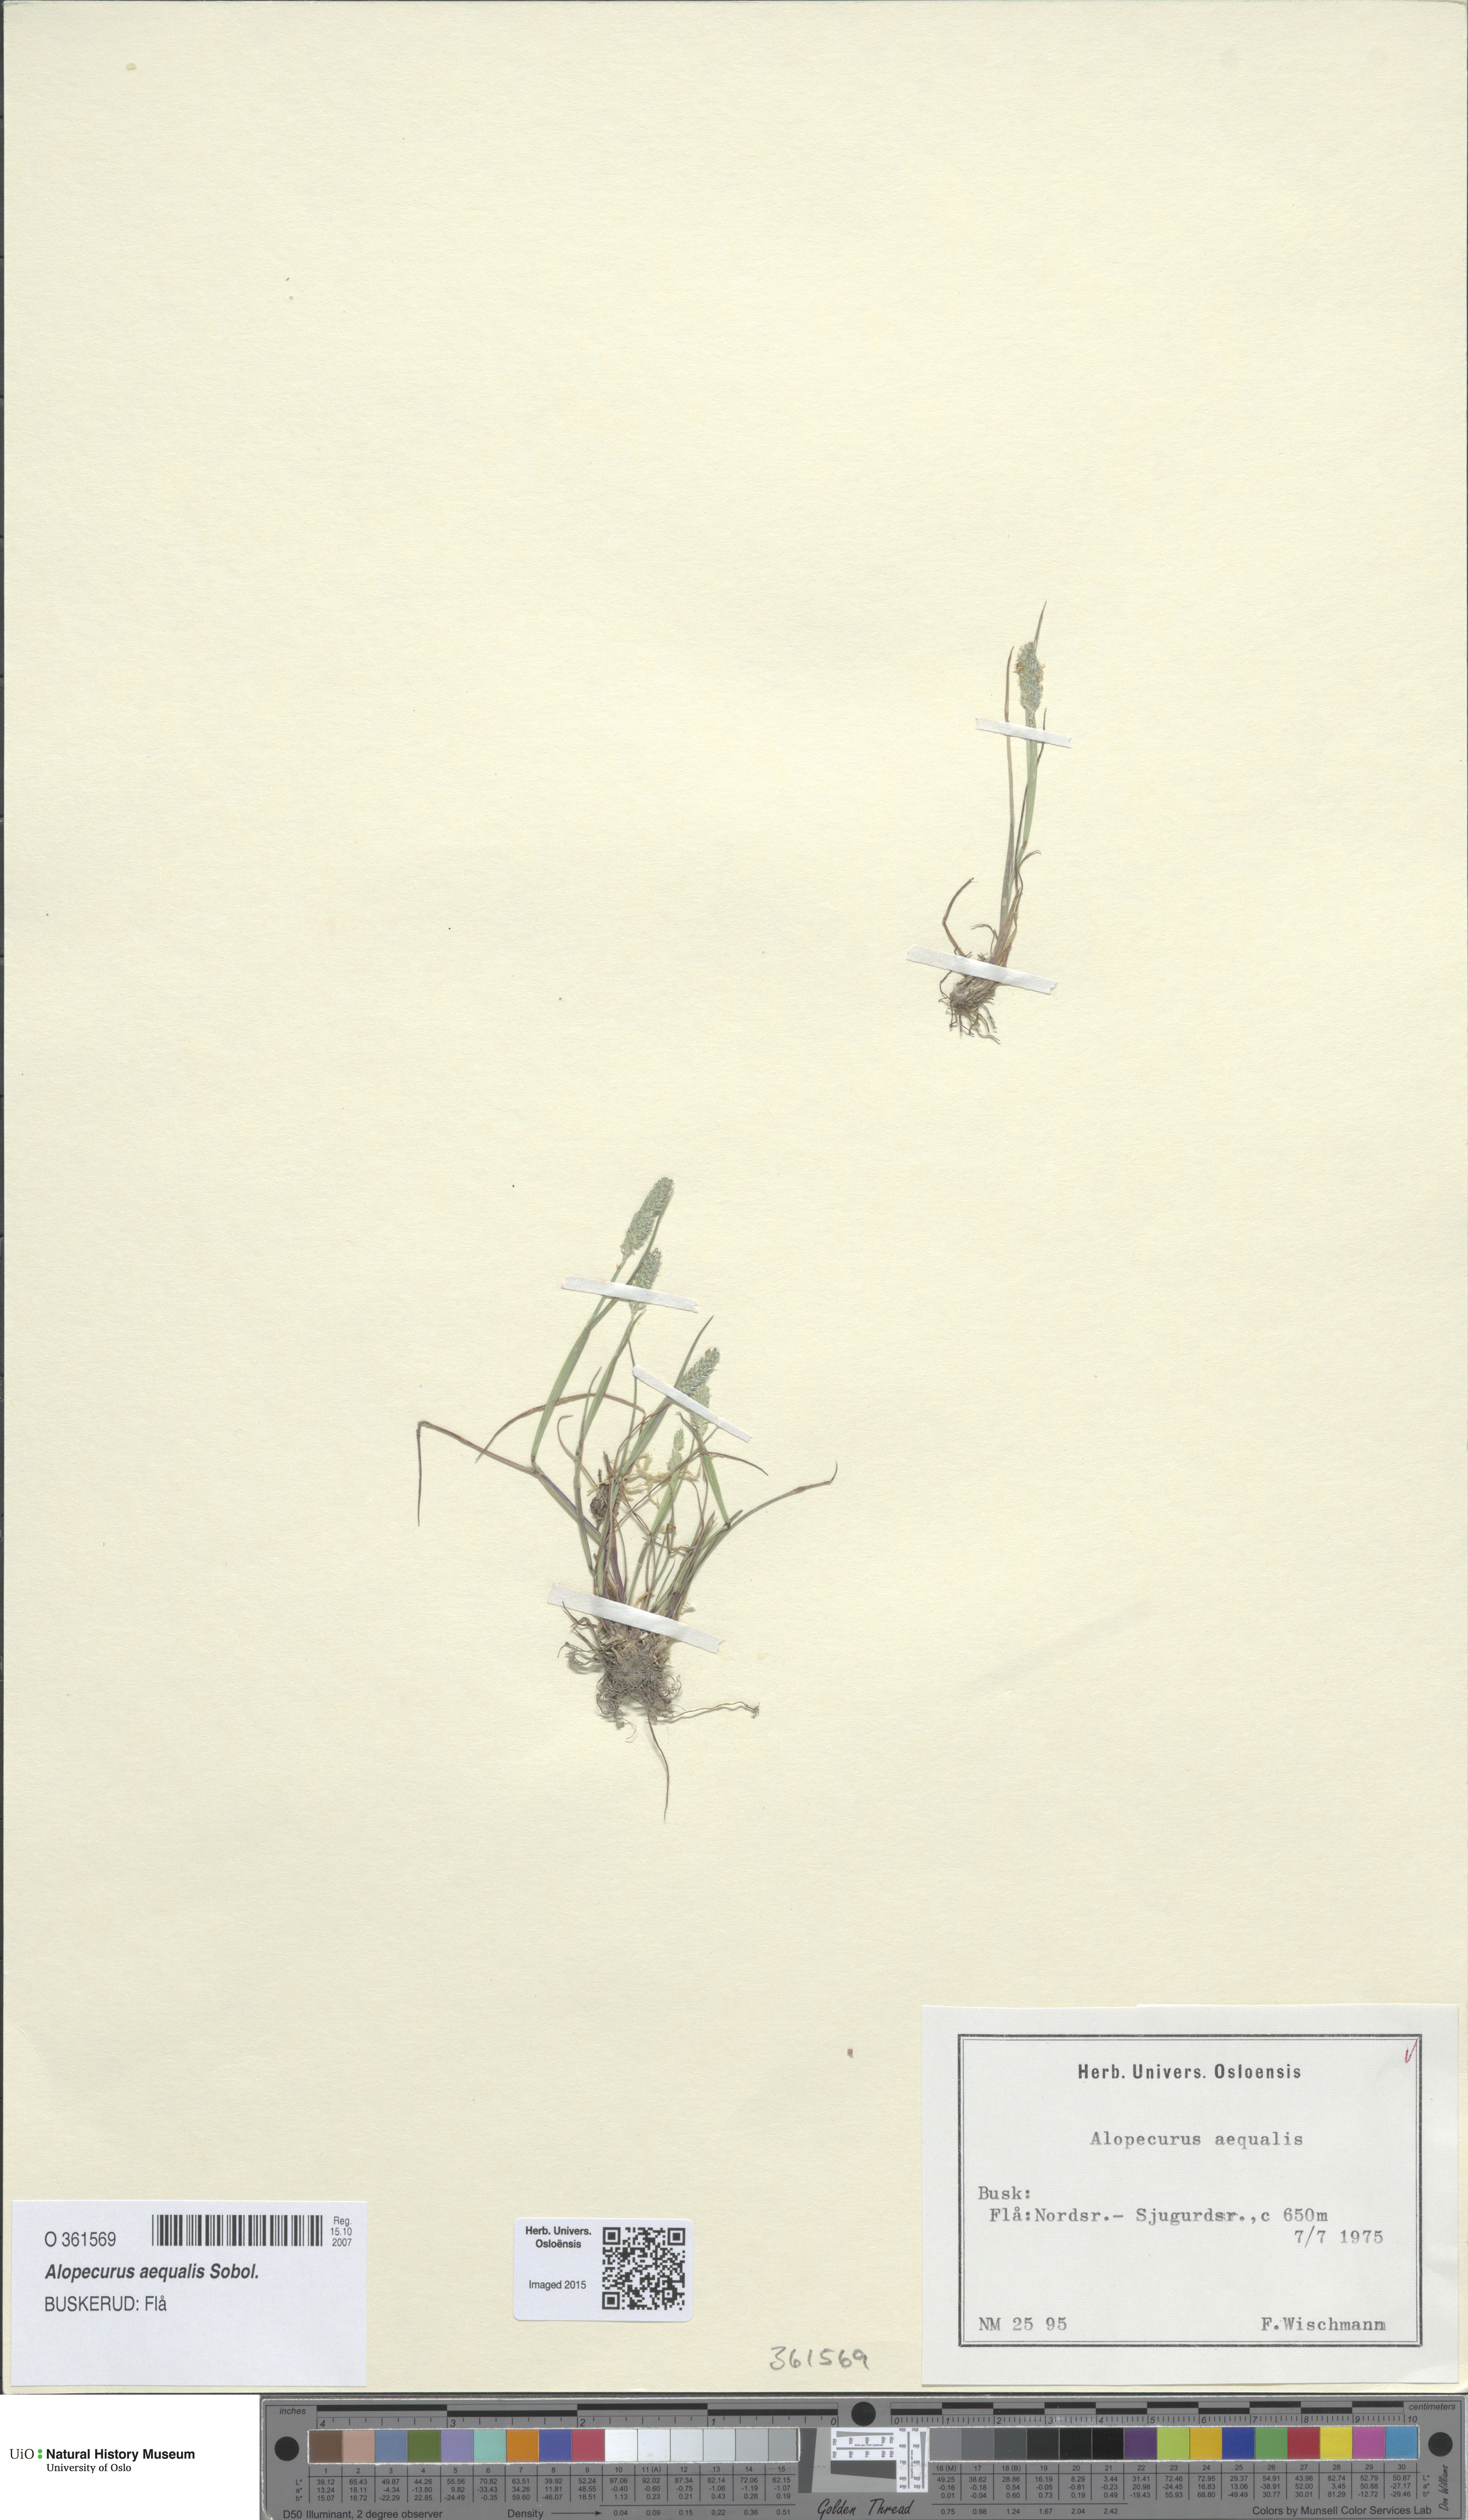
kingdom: Plantae
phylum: Tracheophyta
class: Liliopsida
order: Poales
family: Poaceae
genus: Alopecurus
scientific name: Alopecurus aequalis
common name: Orange foxtail
